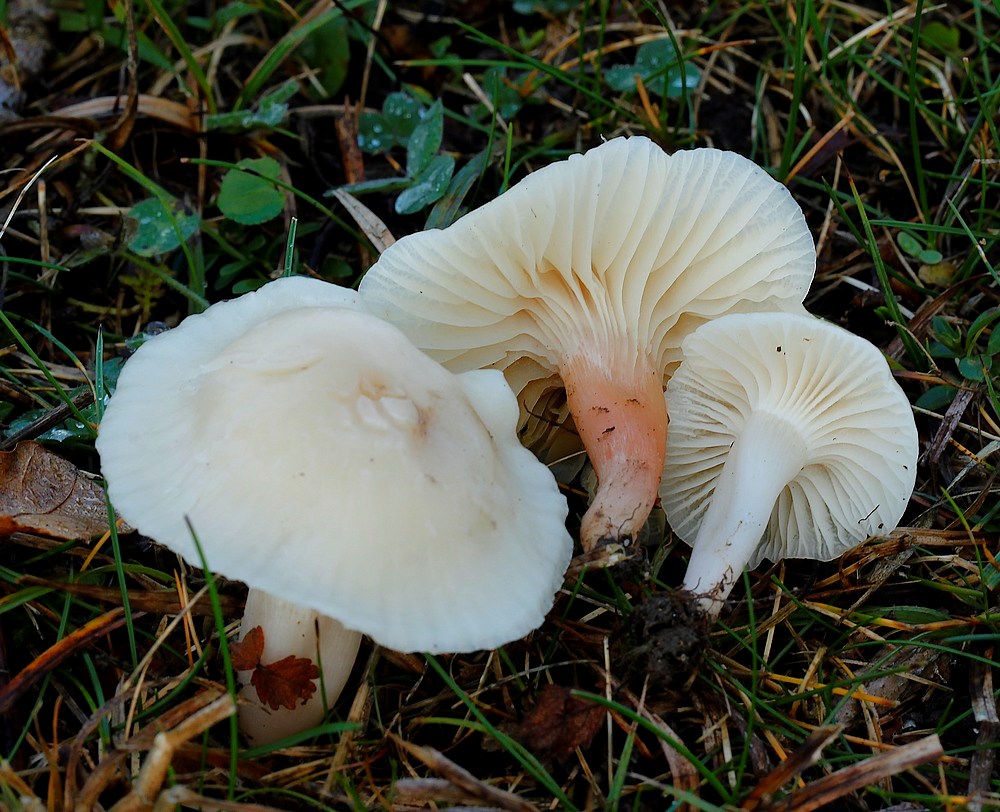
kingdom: Fungi
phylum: Basidiomycota
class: Agaricomycetes
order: Agaricales
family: Hygrophoraceae
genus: Cuphophyllus
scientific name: Cuphophyllus virgineus
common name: isabella-vokshat
